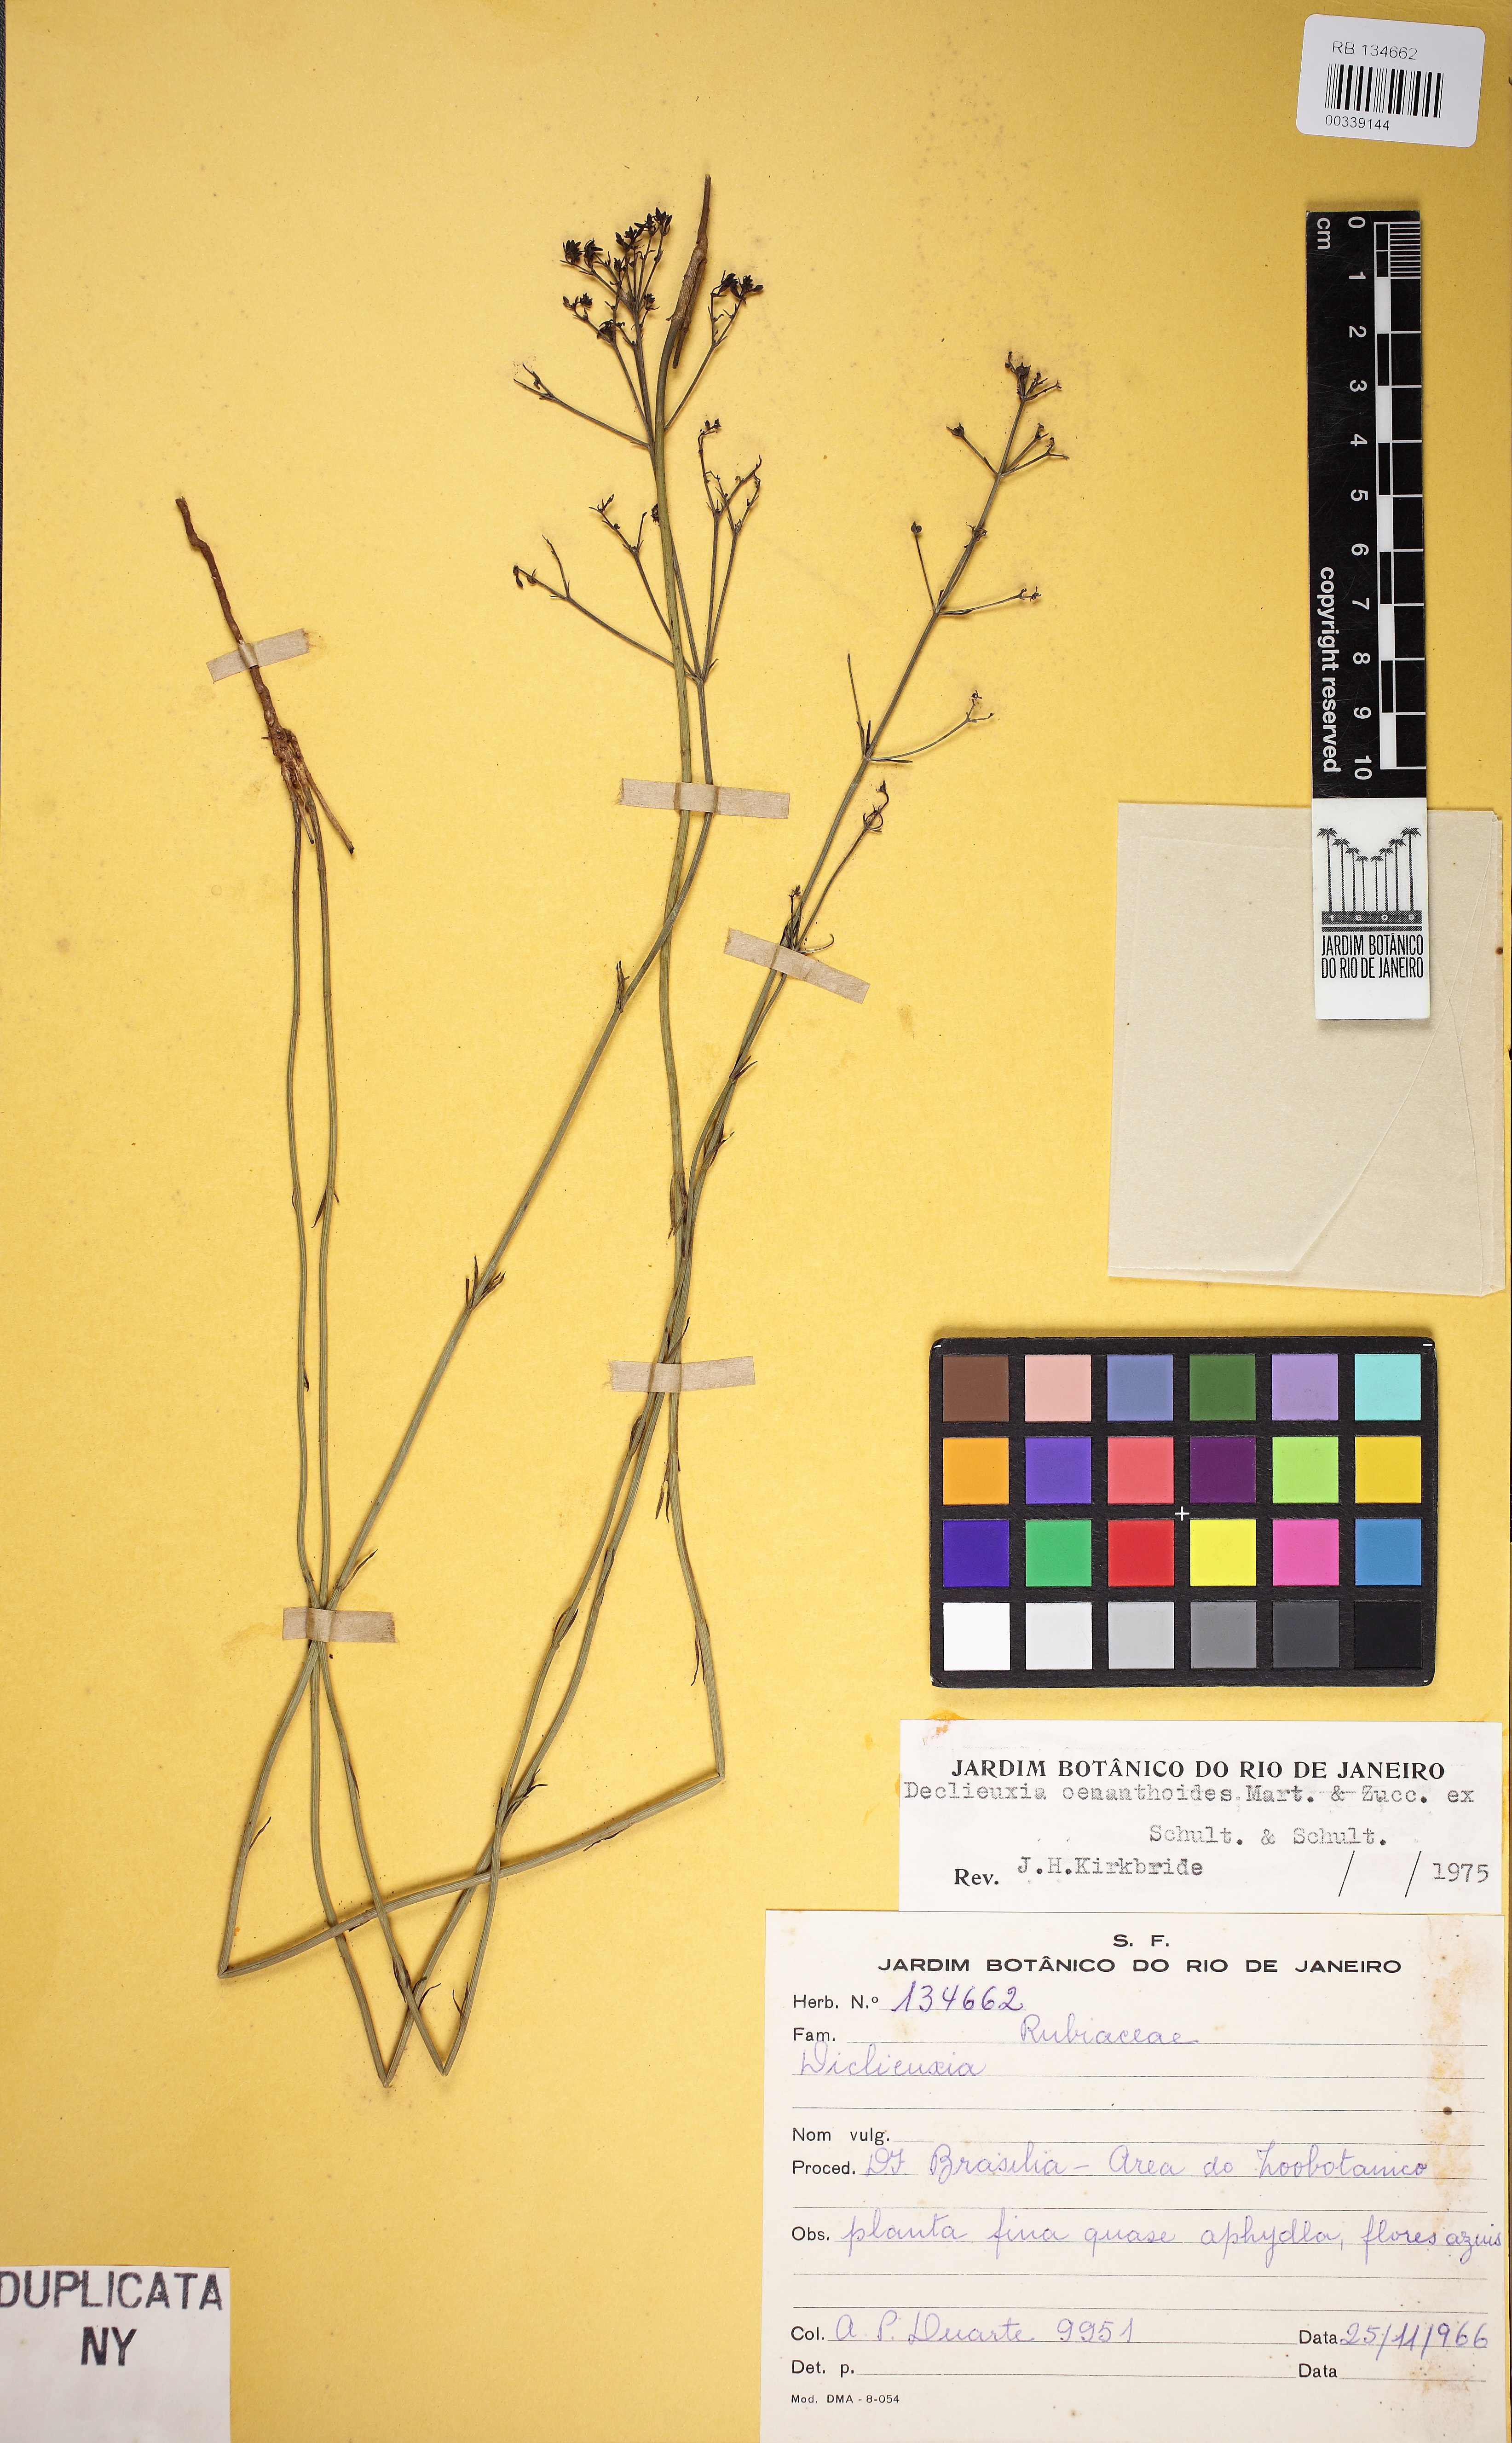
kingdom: Plantae
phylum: Tracheophyta
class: Magnoliopsida
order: Gentianales
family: Rubiaceae
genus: Declieuxia
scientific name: Declieuxia oenanthoides
